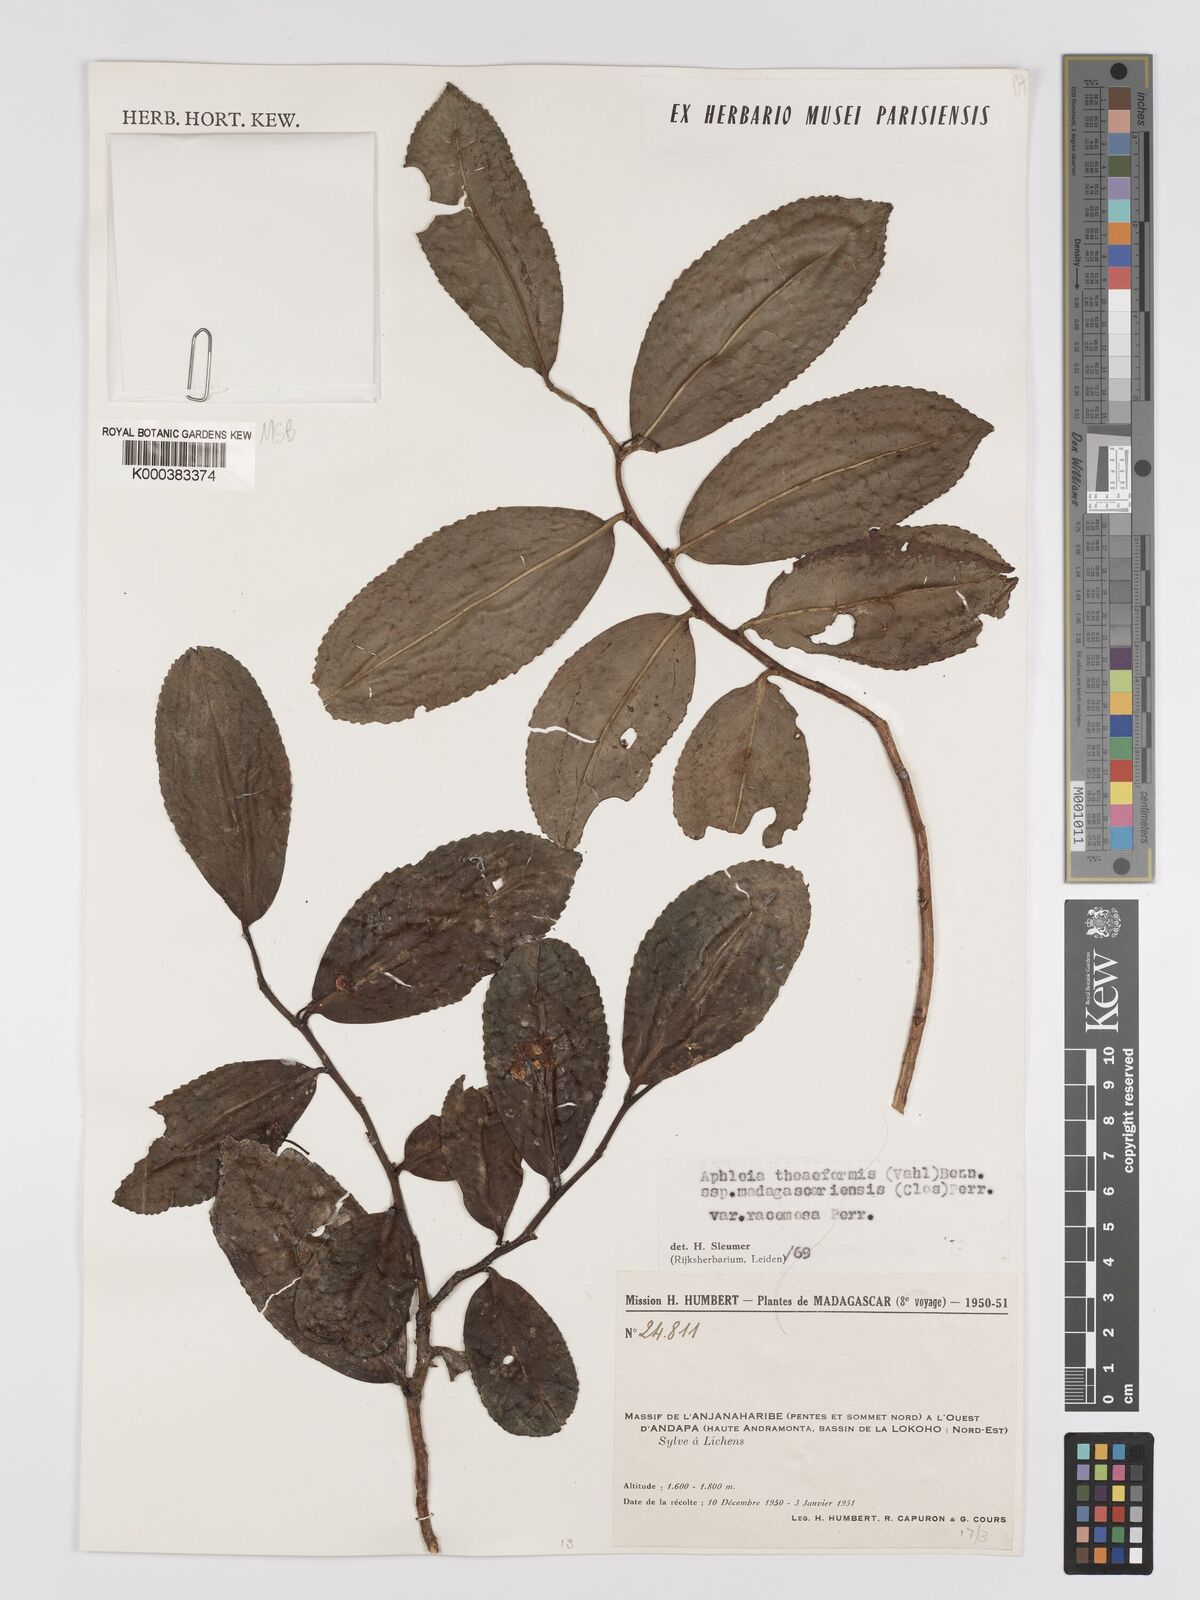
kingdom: Plantae
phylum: Tracheophyta
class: Magnoliopsida
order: Crossosomatales
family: Aphloiaceae
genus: Aphloia
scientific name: Aphloia theiformis
